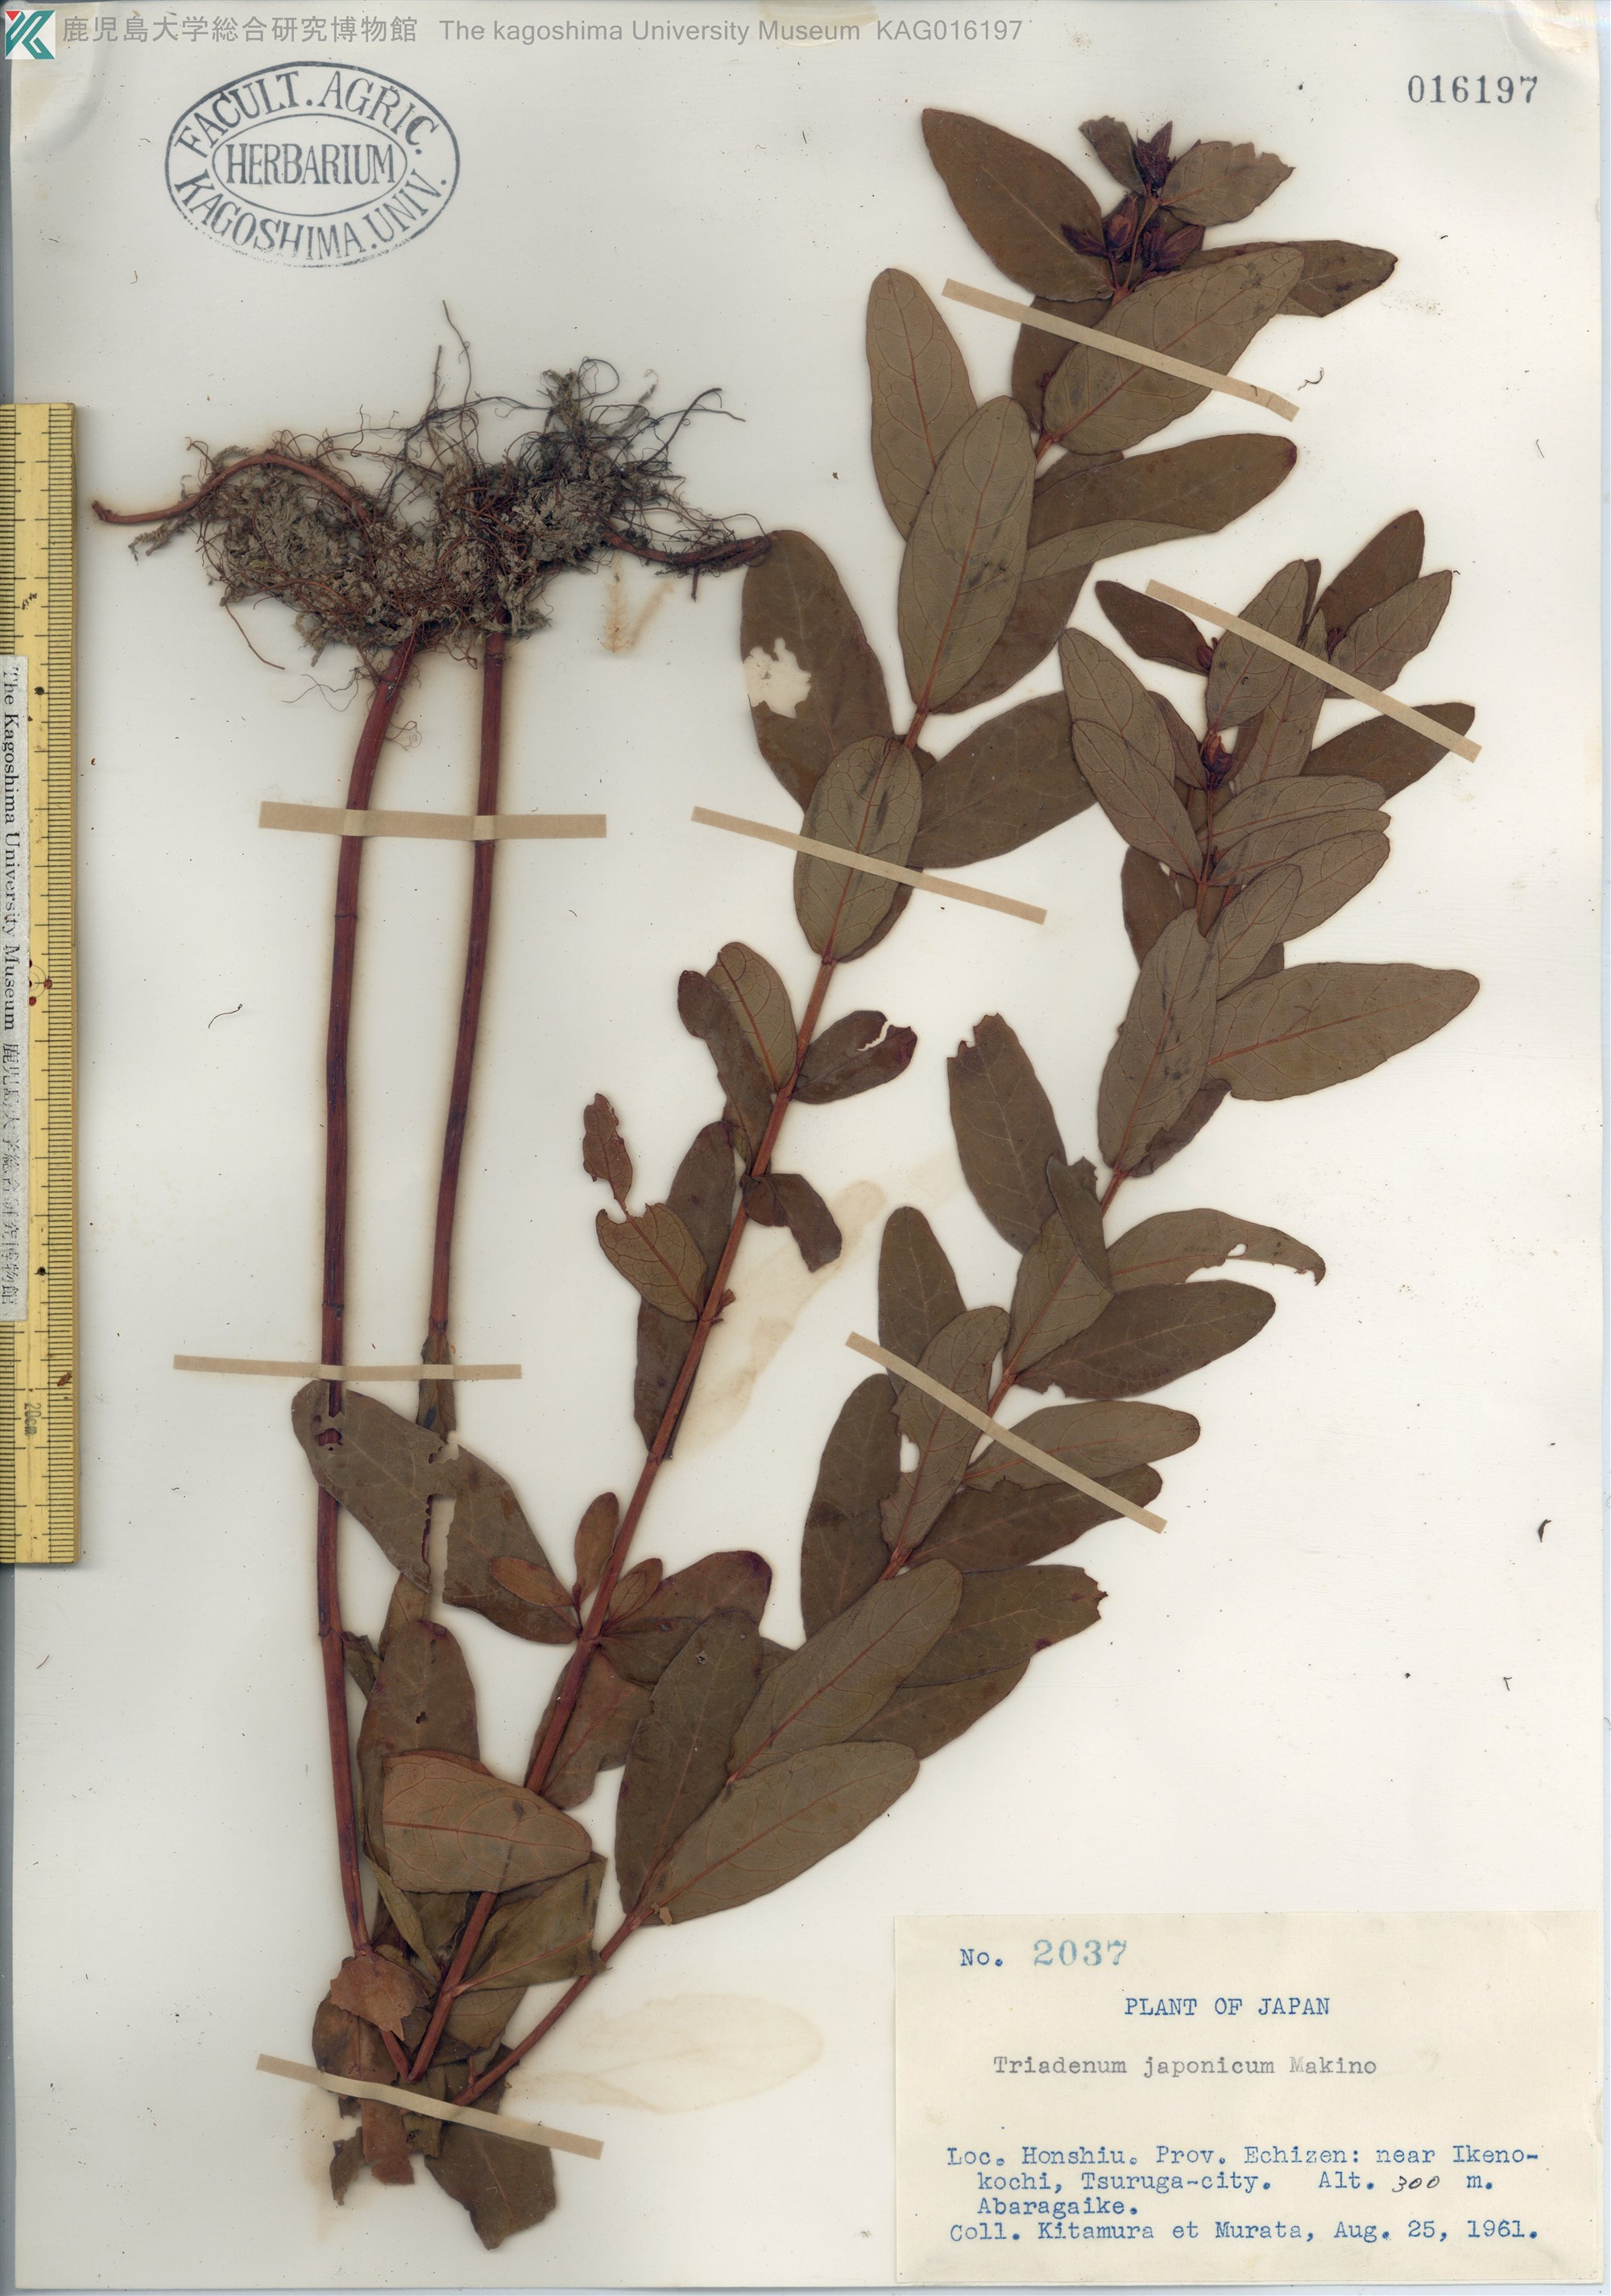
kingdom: Plantae
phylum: Tracheophyta
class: Magnoliopsida
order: Malpighiales
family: Hypericaceae
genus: Triadenum
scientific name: Triadenum japonicum
